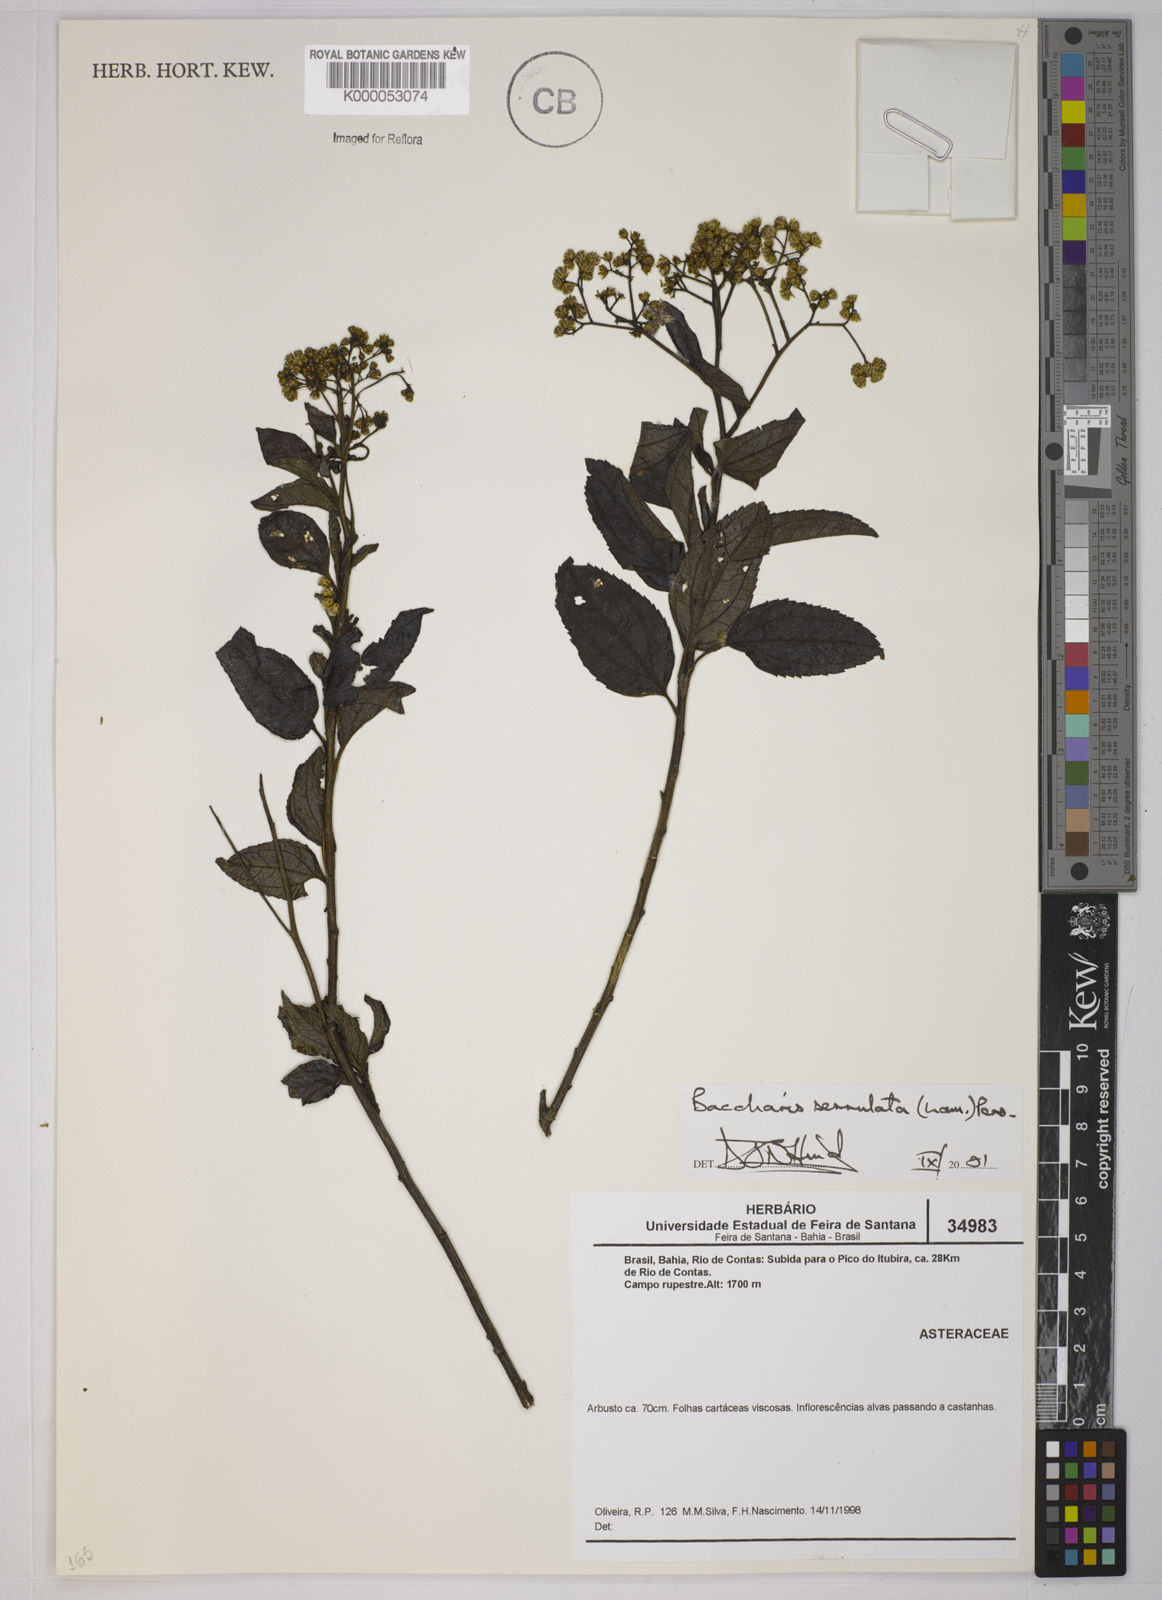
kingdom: Plantae
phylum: Tracheophyta
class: Magnoliopsida
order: Asterales
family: Asteraceae
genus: Baccharis
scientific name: Baccharis serrulata
